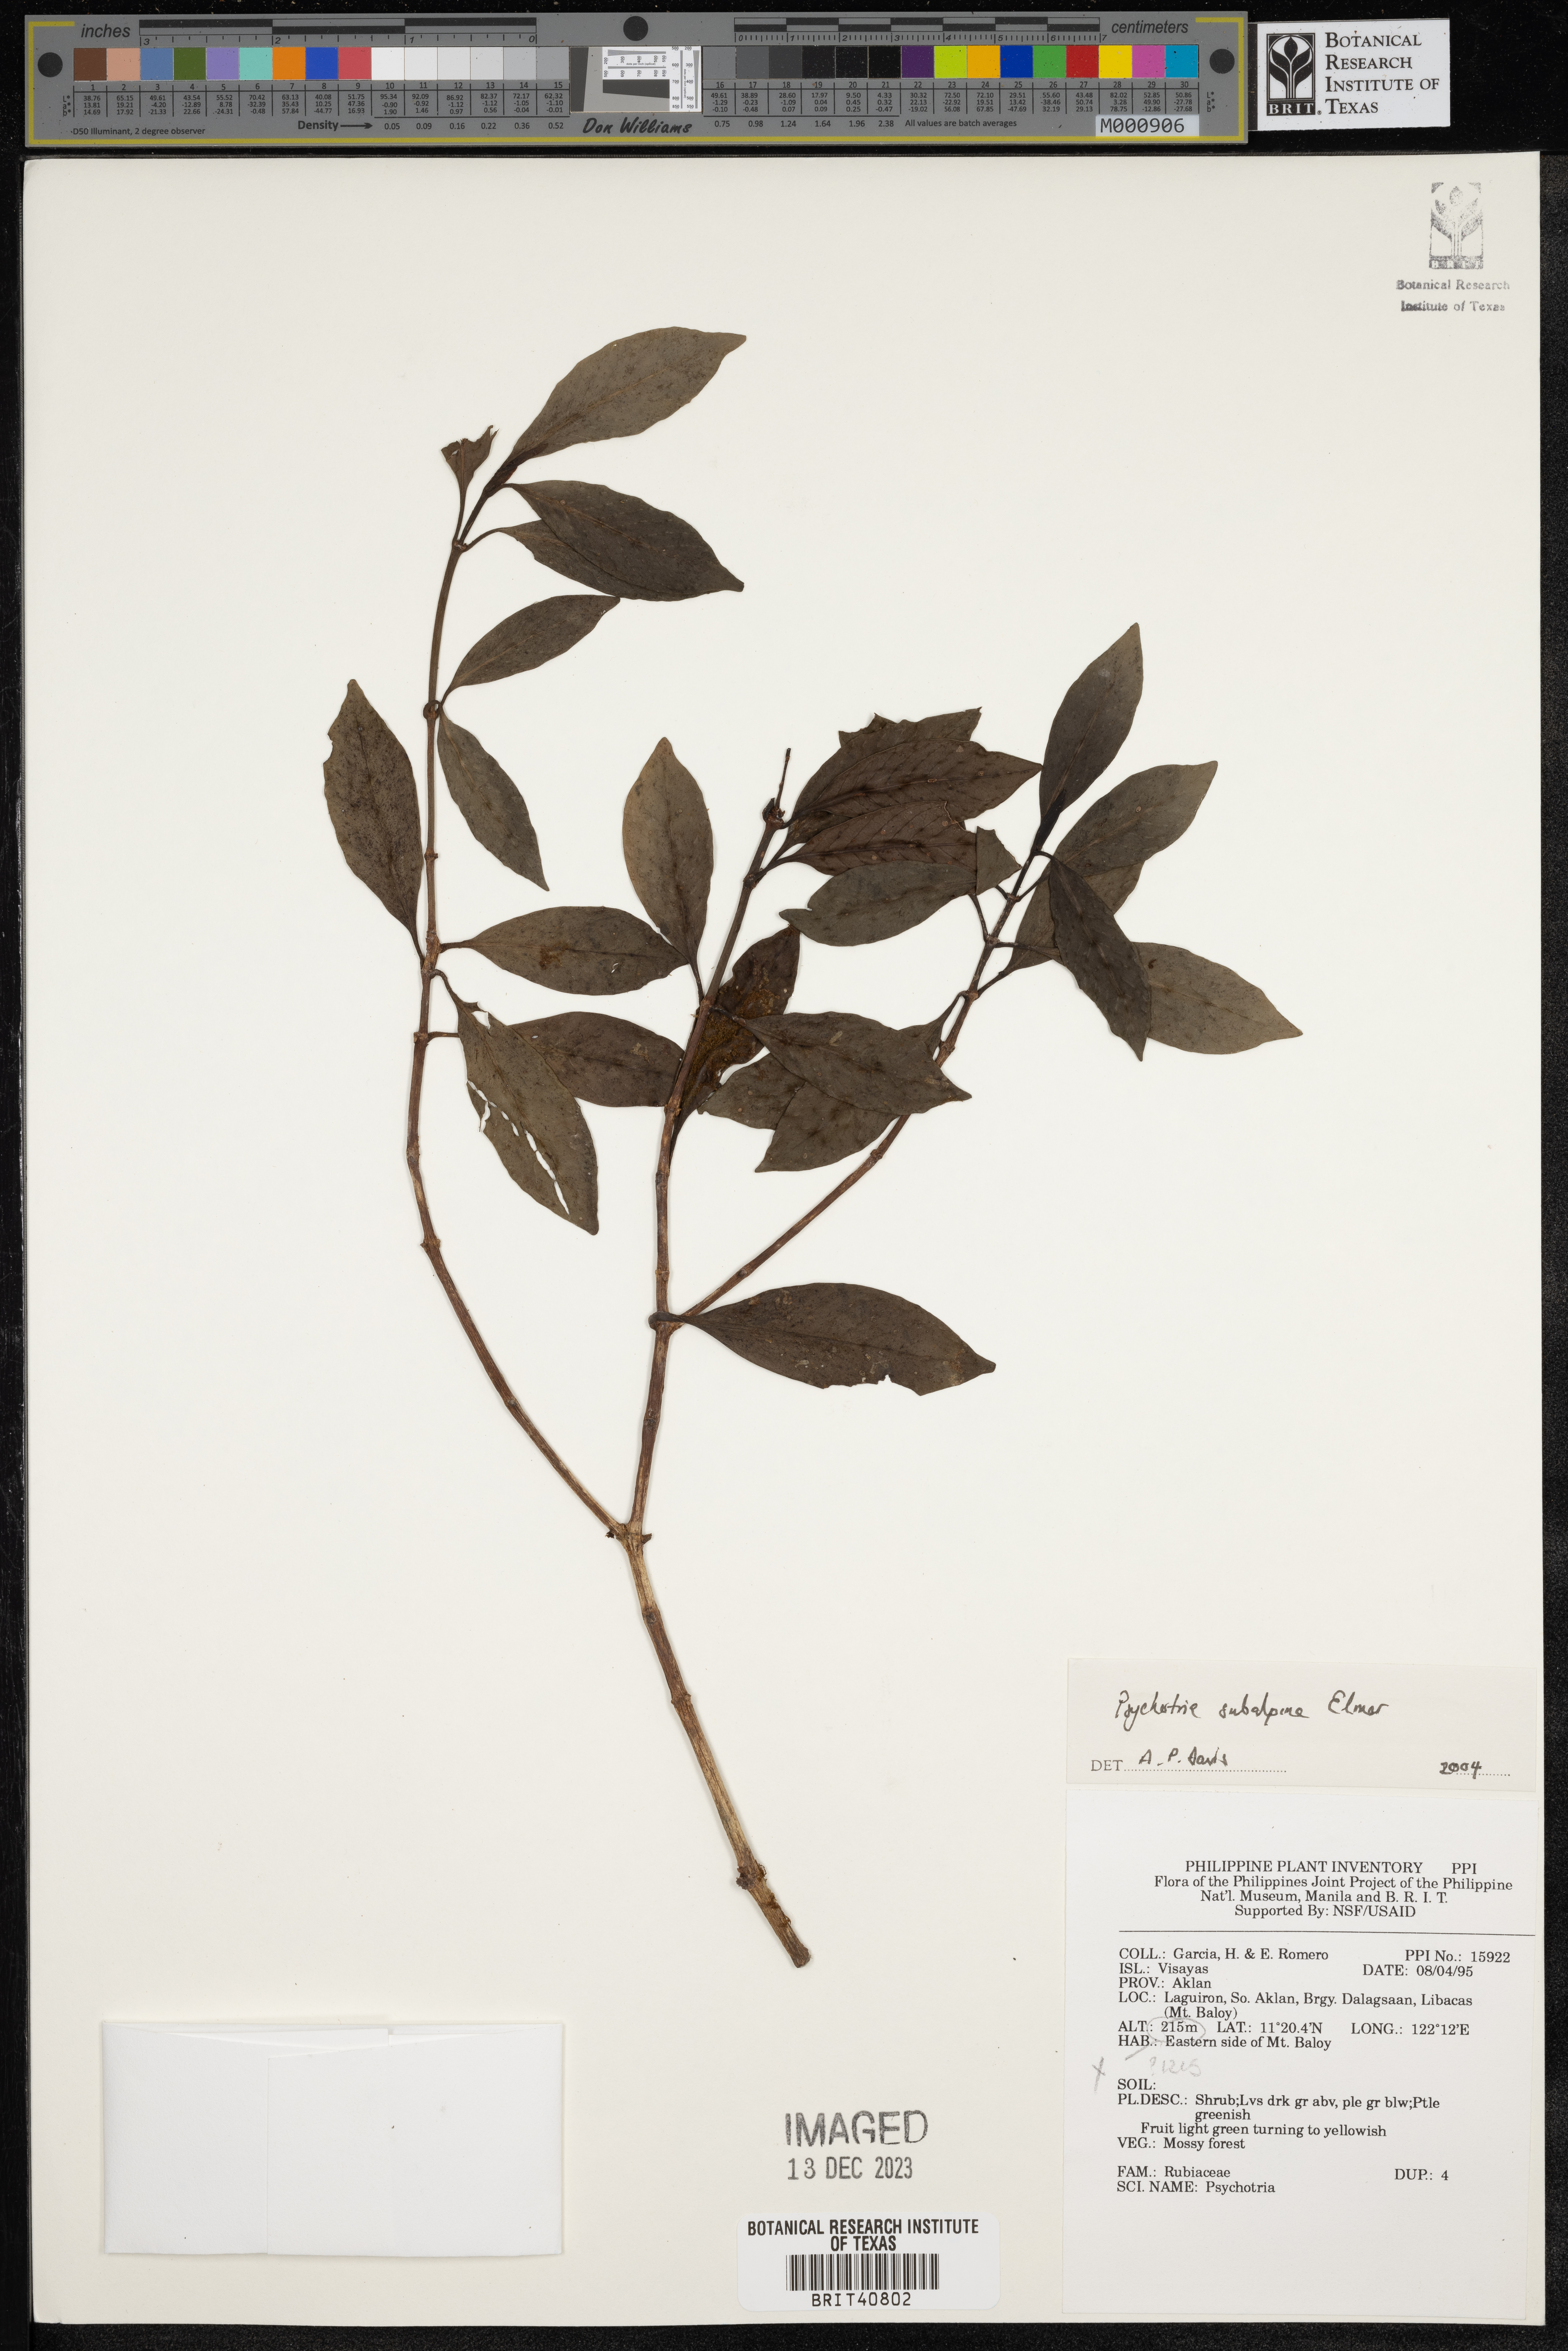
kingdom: Plantae
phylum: Tracheophyta
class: Magnoliopsida
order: Gentianales
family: Rubiaceae
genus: Psychotria
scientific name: Psychotria subalpina
